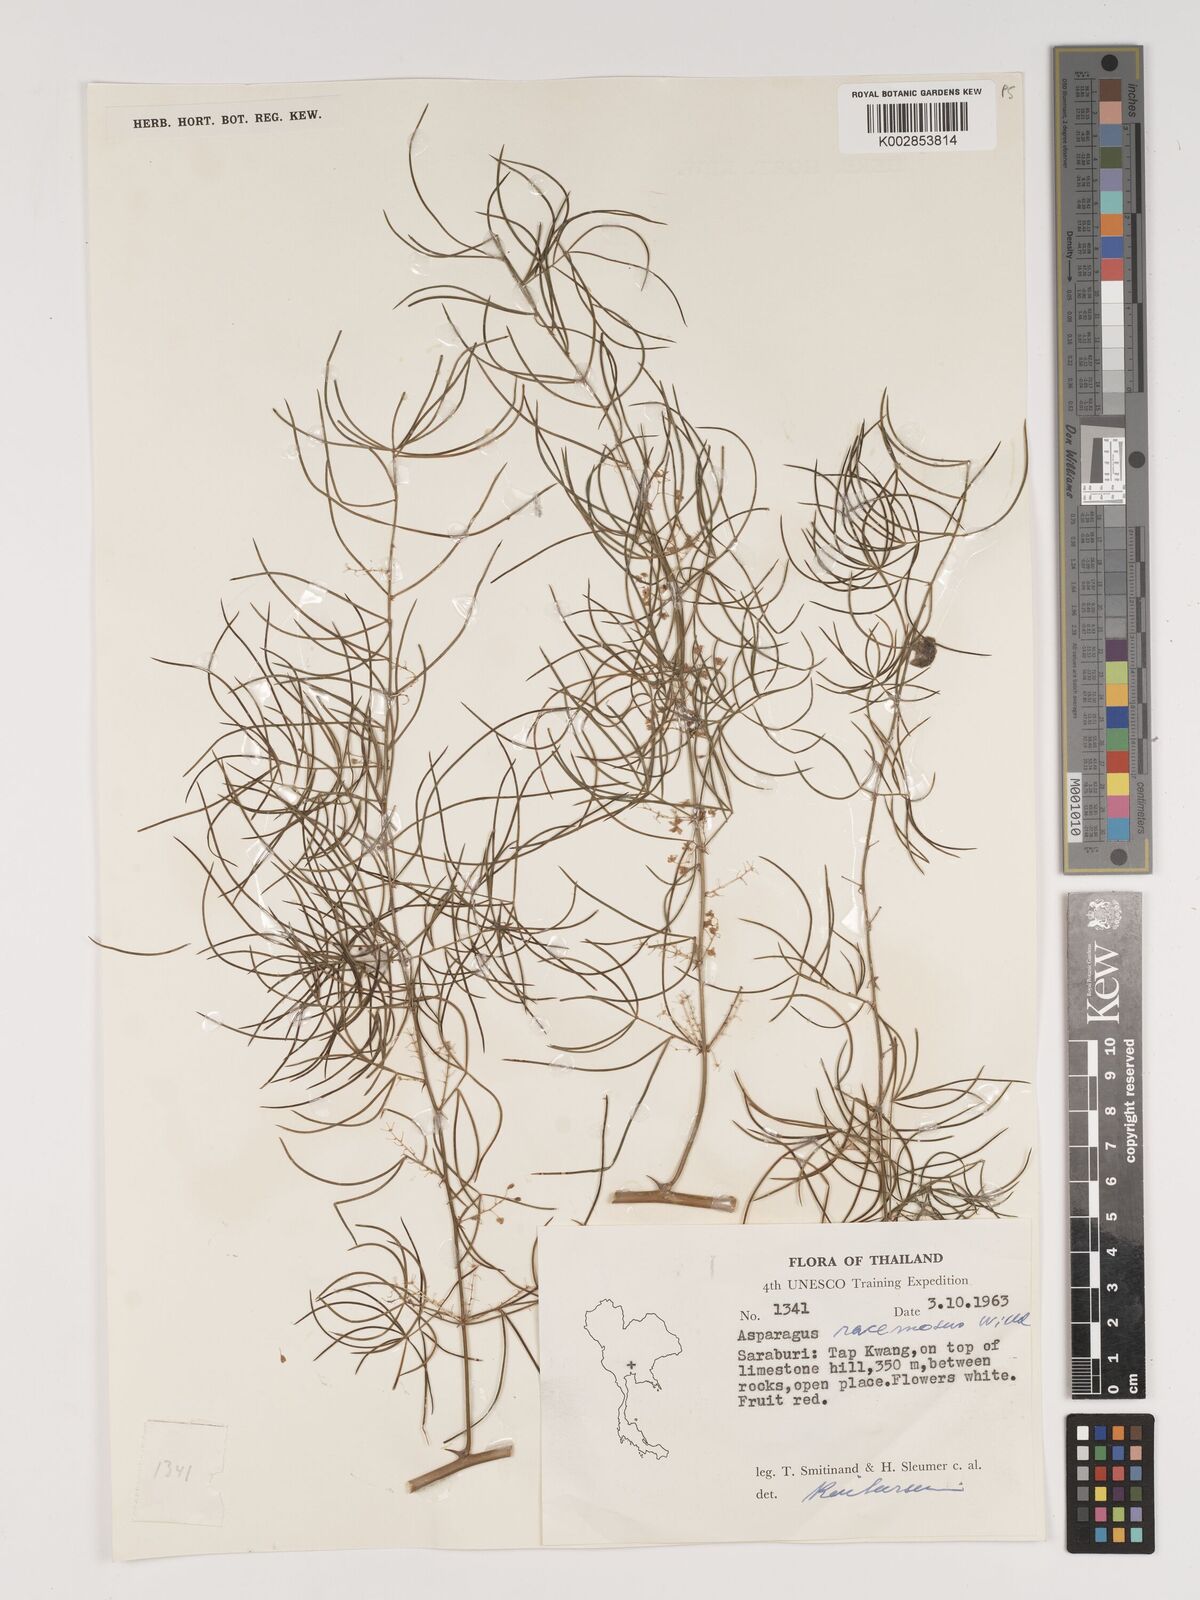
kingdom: Plantae
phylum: Tracheophyta
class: Liliopsida
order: Asparagales
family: Asparagaceae
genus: Asparagus
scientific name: Asparagus racemosus
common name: Asparagus-fern
